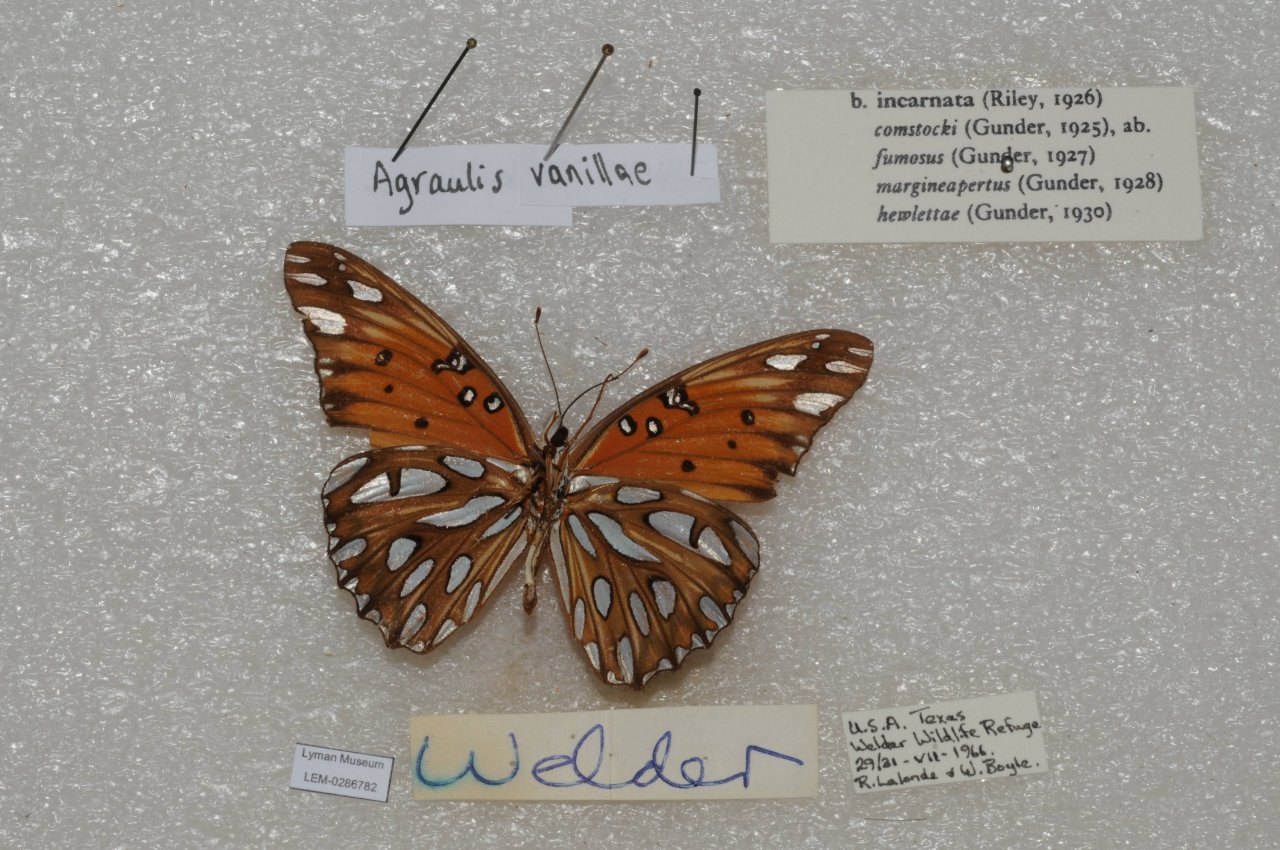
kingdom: Animalia
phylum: Arthropoda
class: Insecta
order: Lepidoptera
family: Nymphalidae
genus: Dione
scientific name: Dione vanillae
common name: Gulf Fritillary
